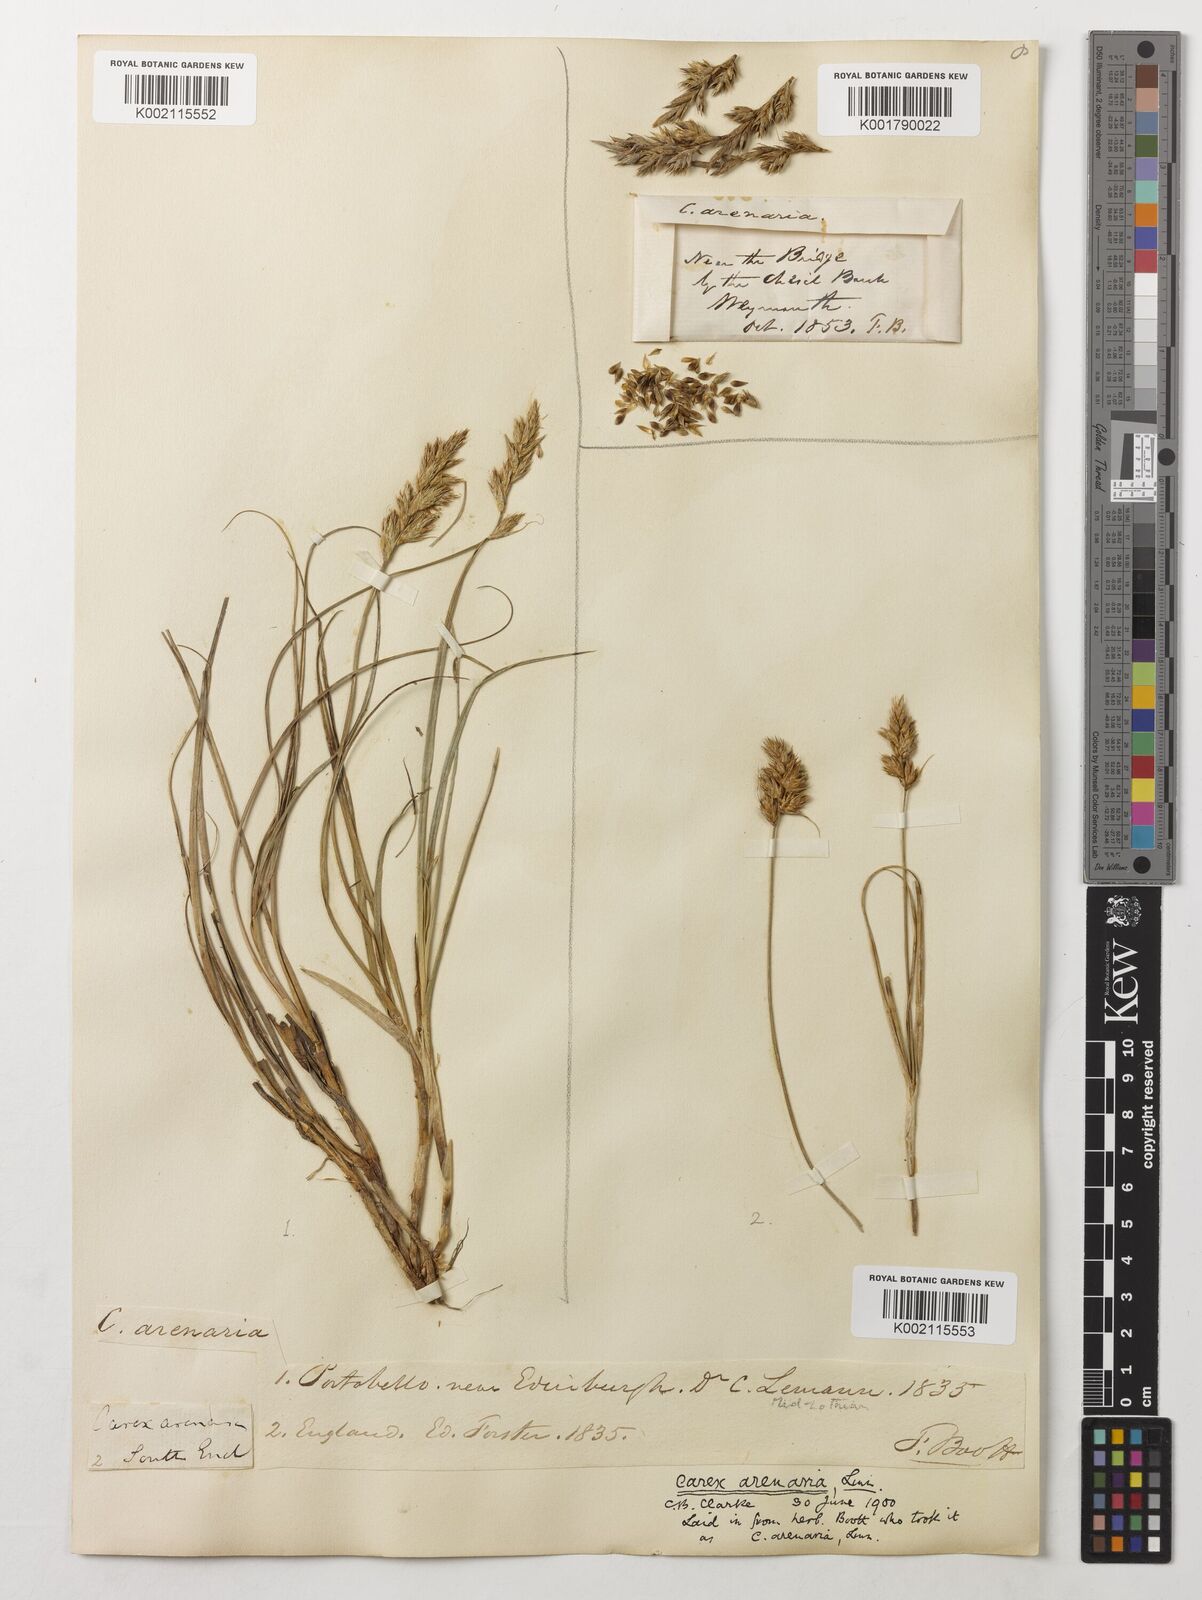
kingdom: Plantae
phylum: Tracheophyta
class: Liliopsida
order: Poales
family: Cyperaceae
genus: Carex
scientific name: Carex arenaria
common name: Sand sedge
